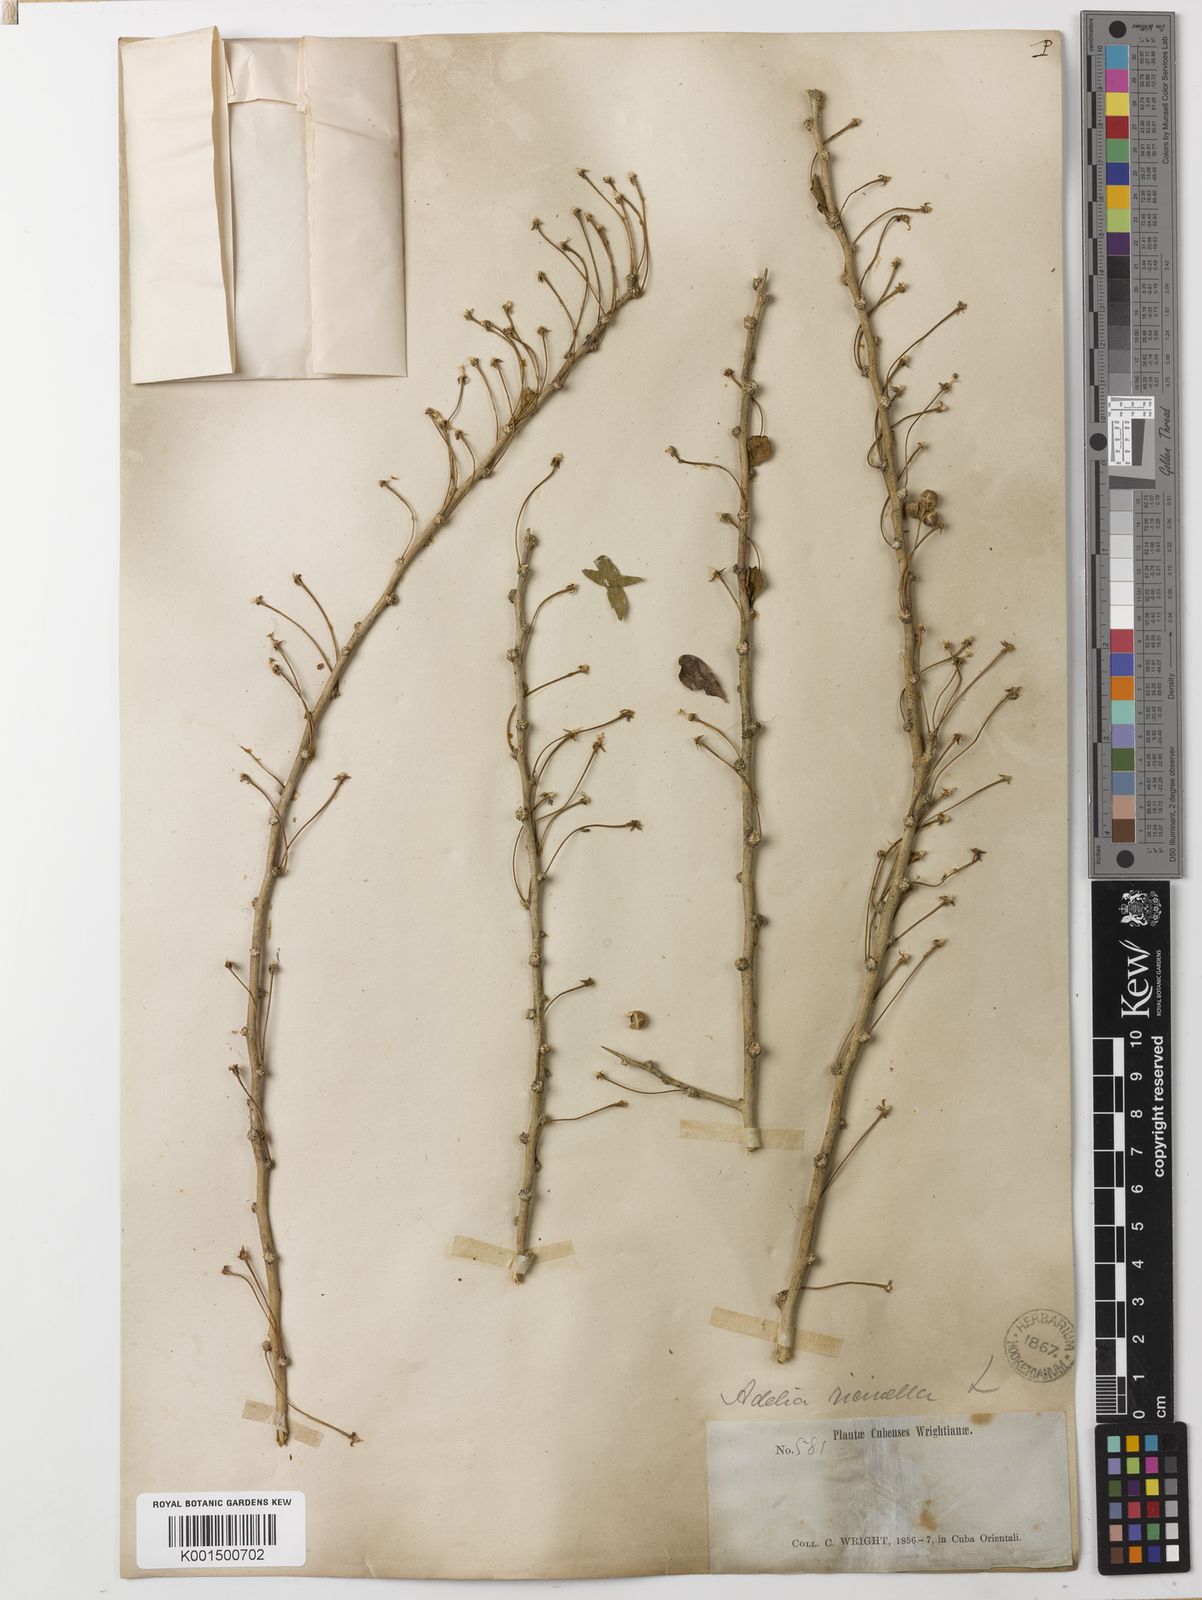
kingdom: Plantae
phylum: Tracheophyta
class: Magnoliopsida
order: Malpighiales
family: Euphorbiaceae
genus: Adelia
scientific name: Adelia ricinella
